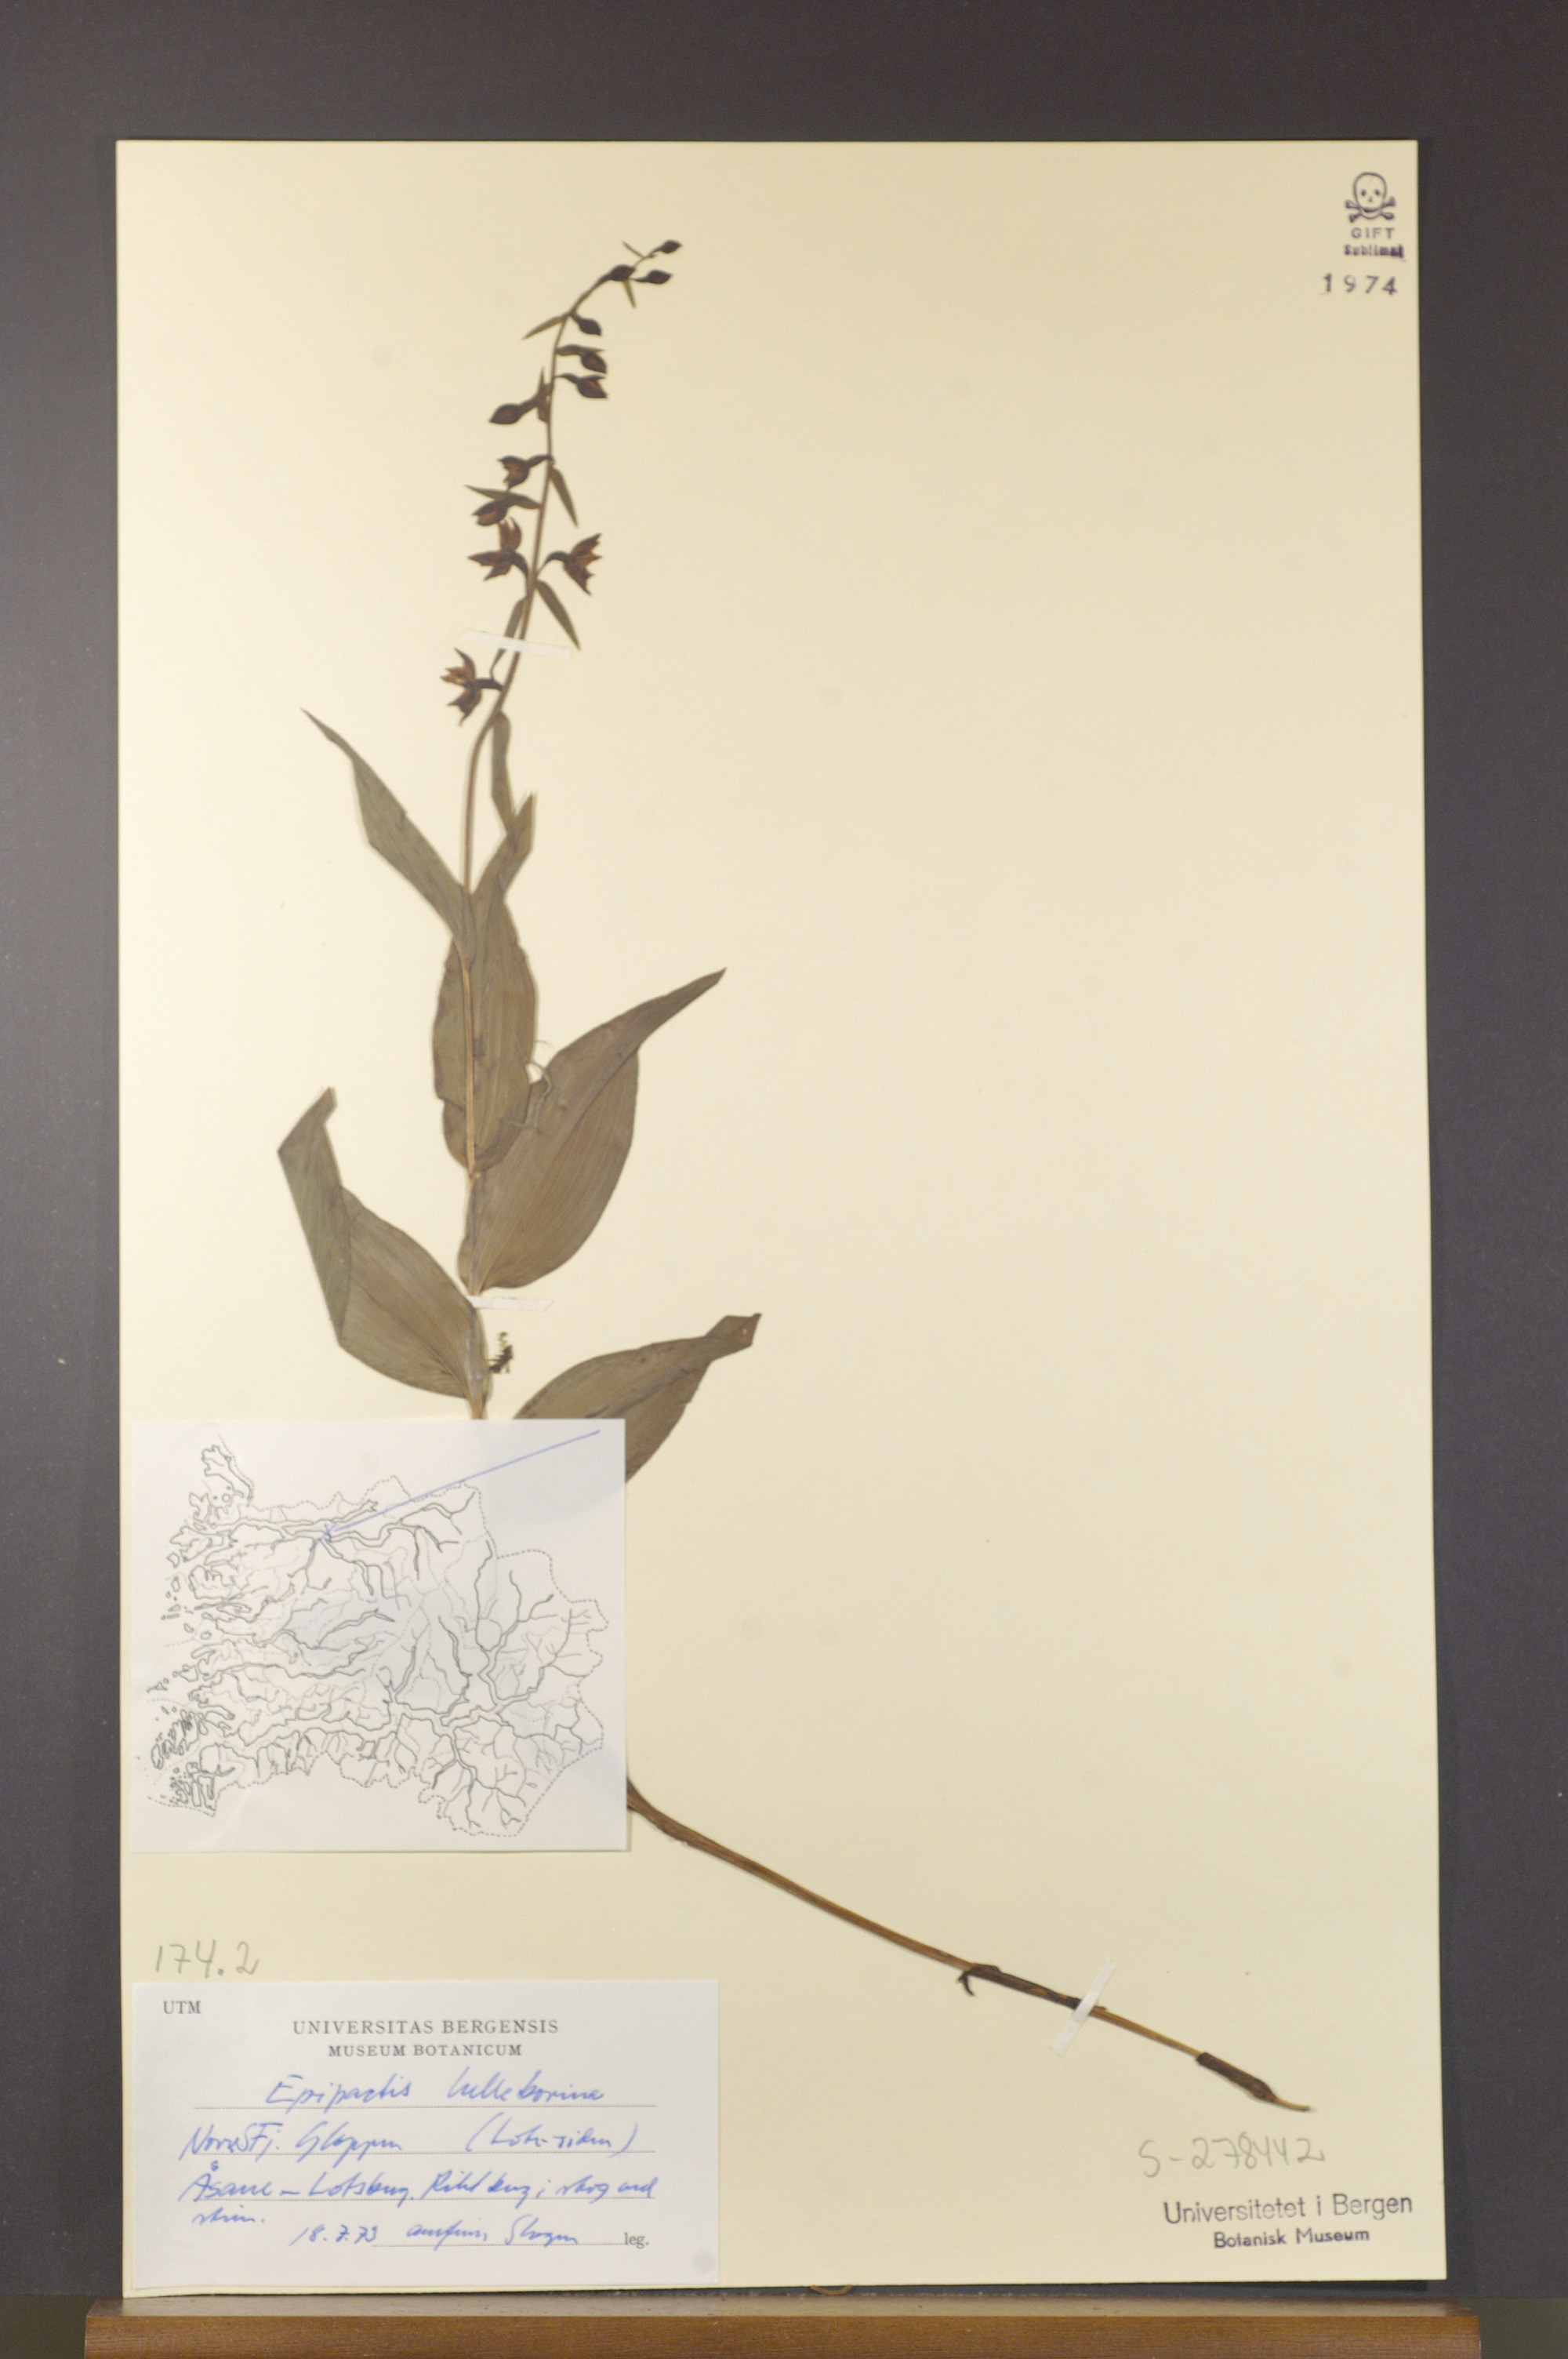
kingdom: Plantae
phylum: Tracheophyta
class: Liliopsida
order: Asparagales
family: Orchidaceae
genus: Epipactis
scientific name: Epipactis helleborine
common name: Broad-leaved helleborine
